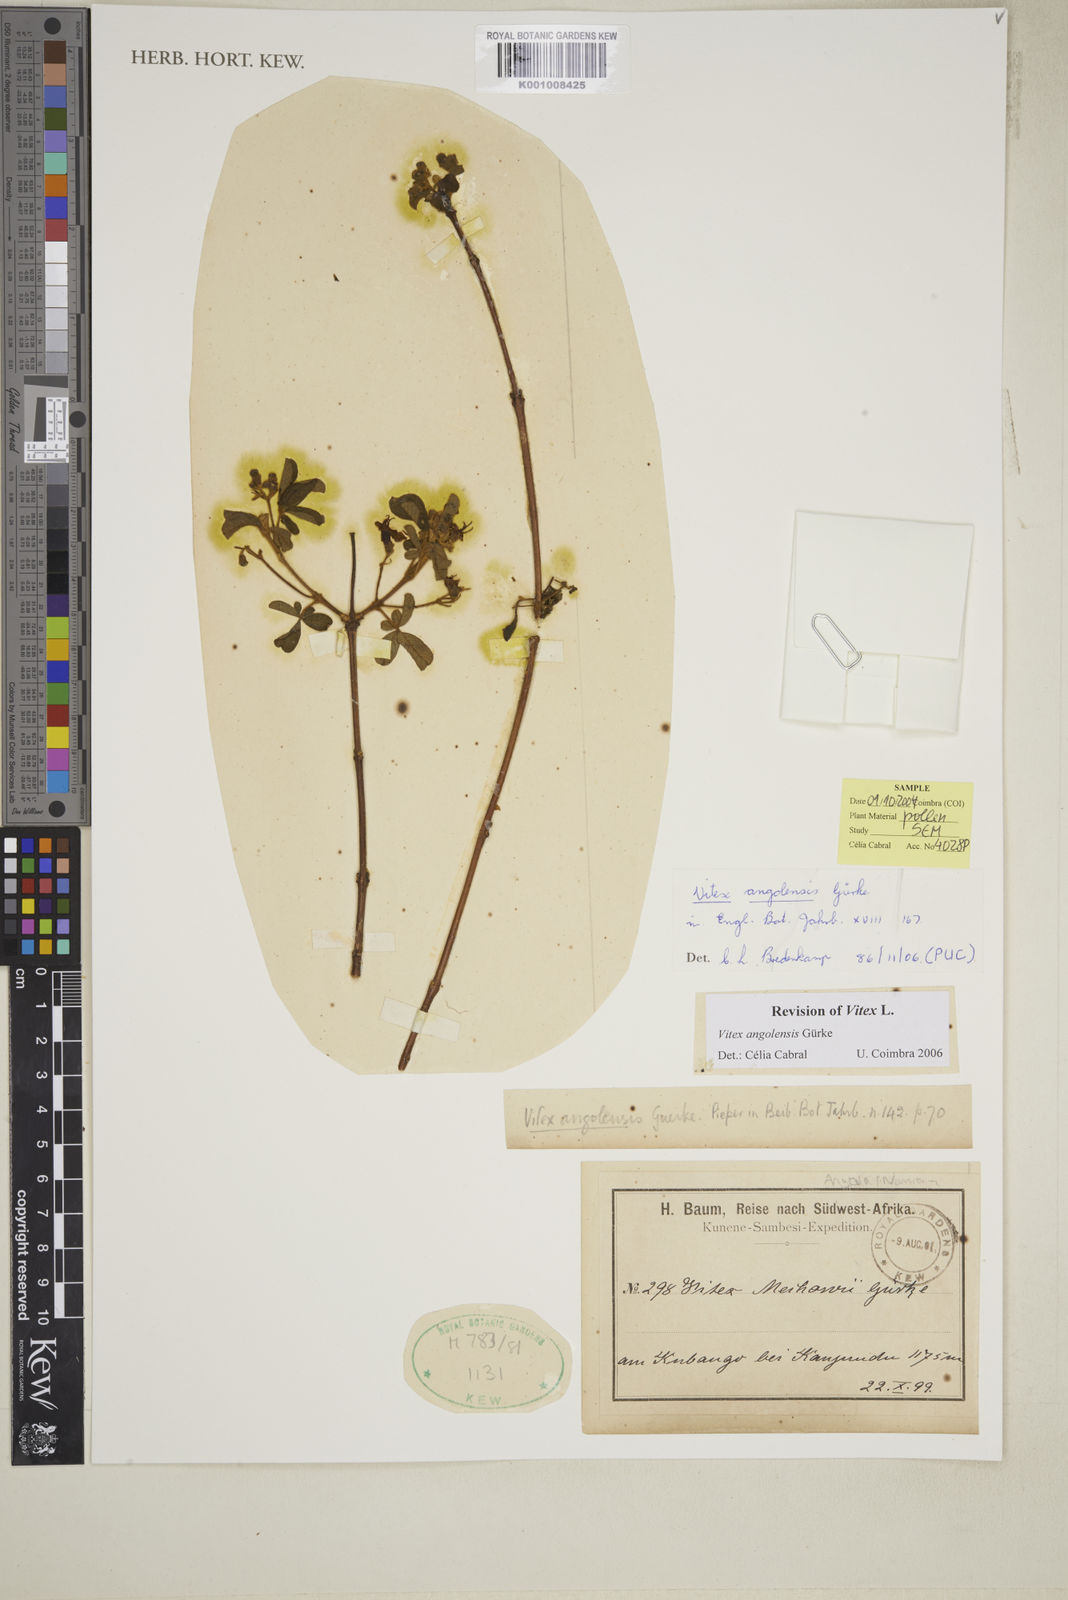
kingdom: Plantae
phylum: Tracheophyta
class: Magnoliopsida
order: Lamiales
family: Lamiaceae
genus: Vitex
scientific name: Vitex
